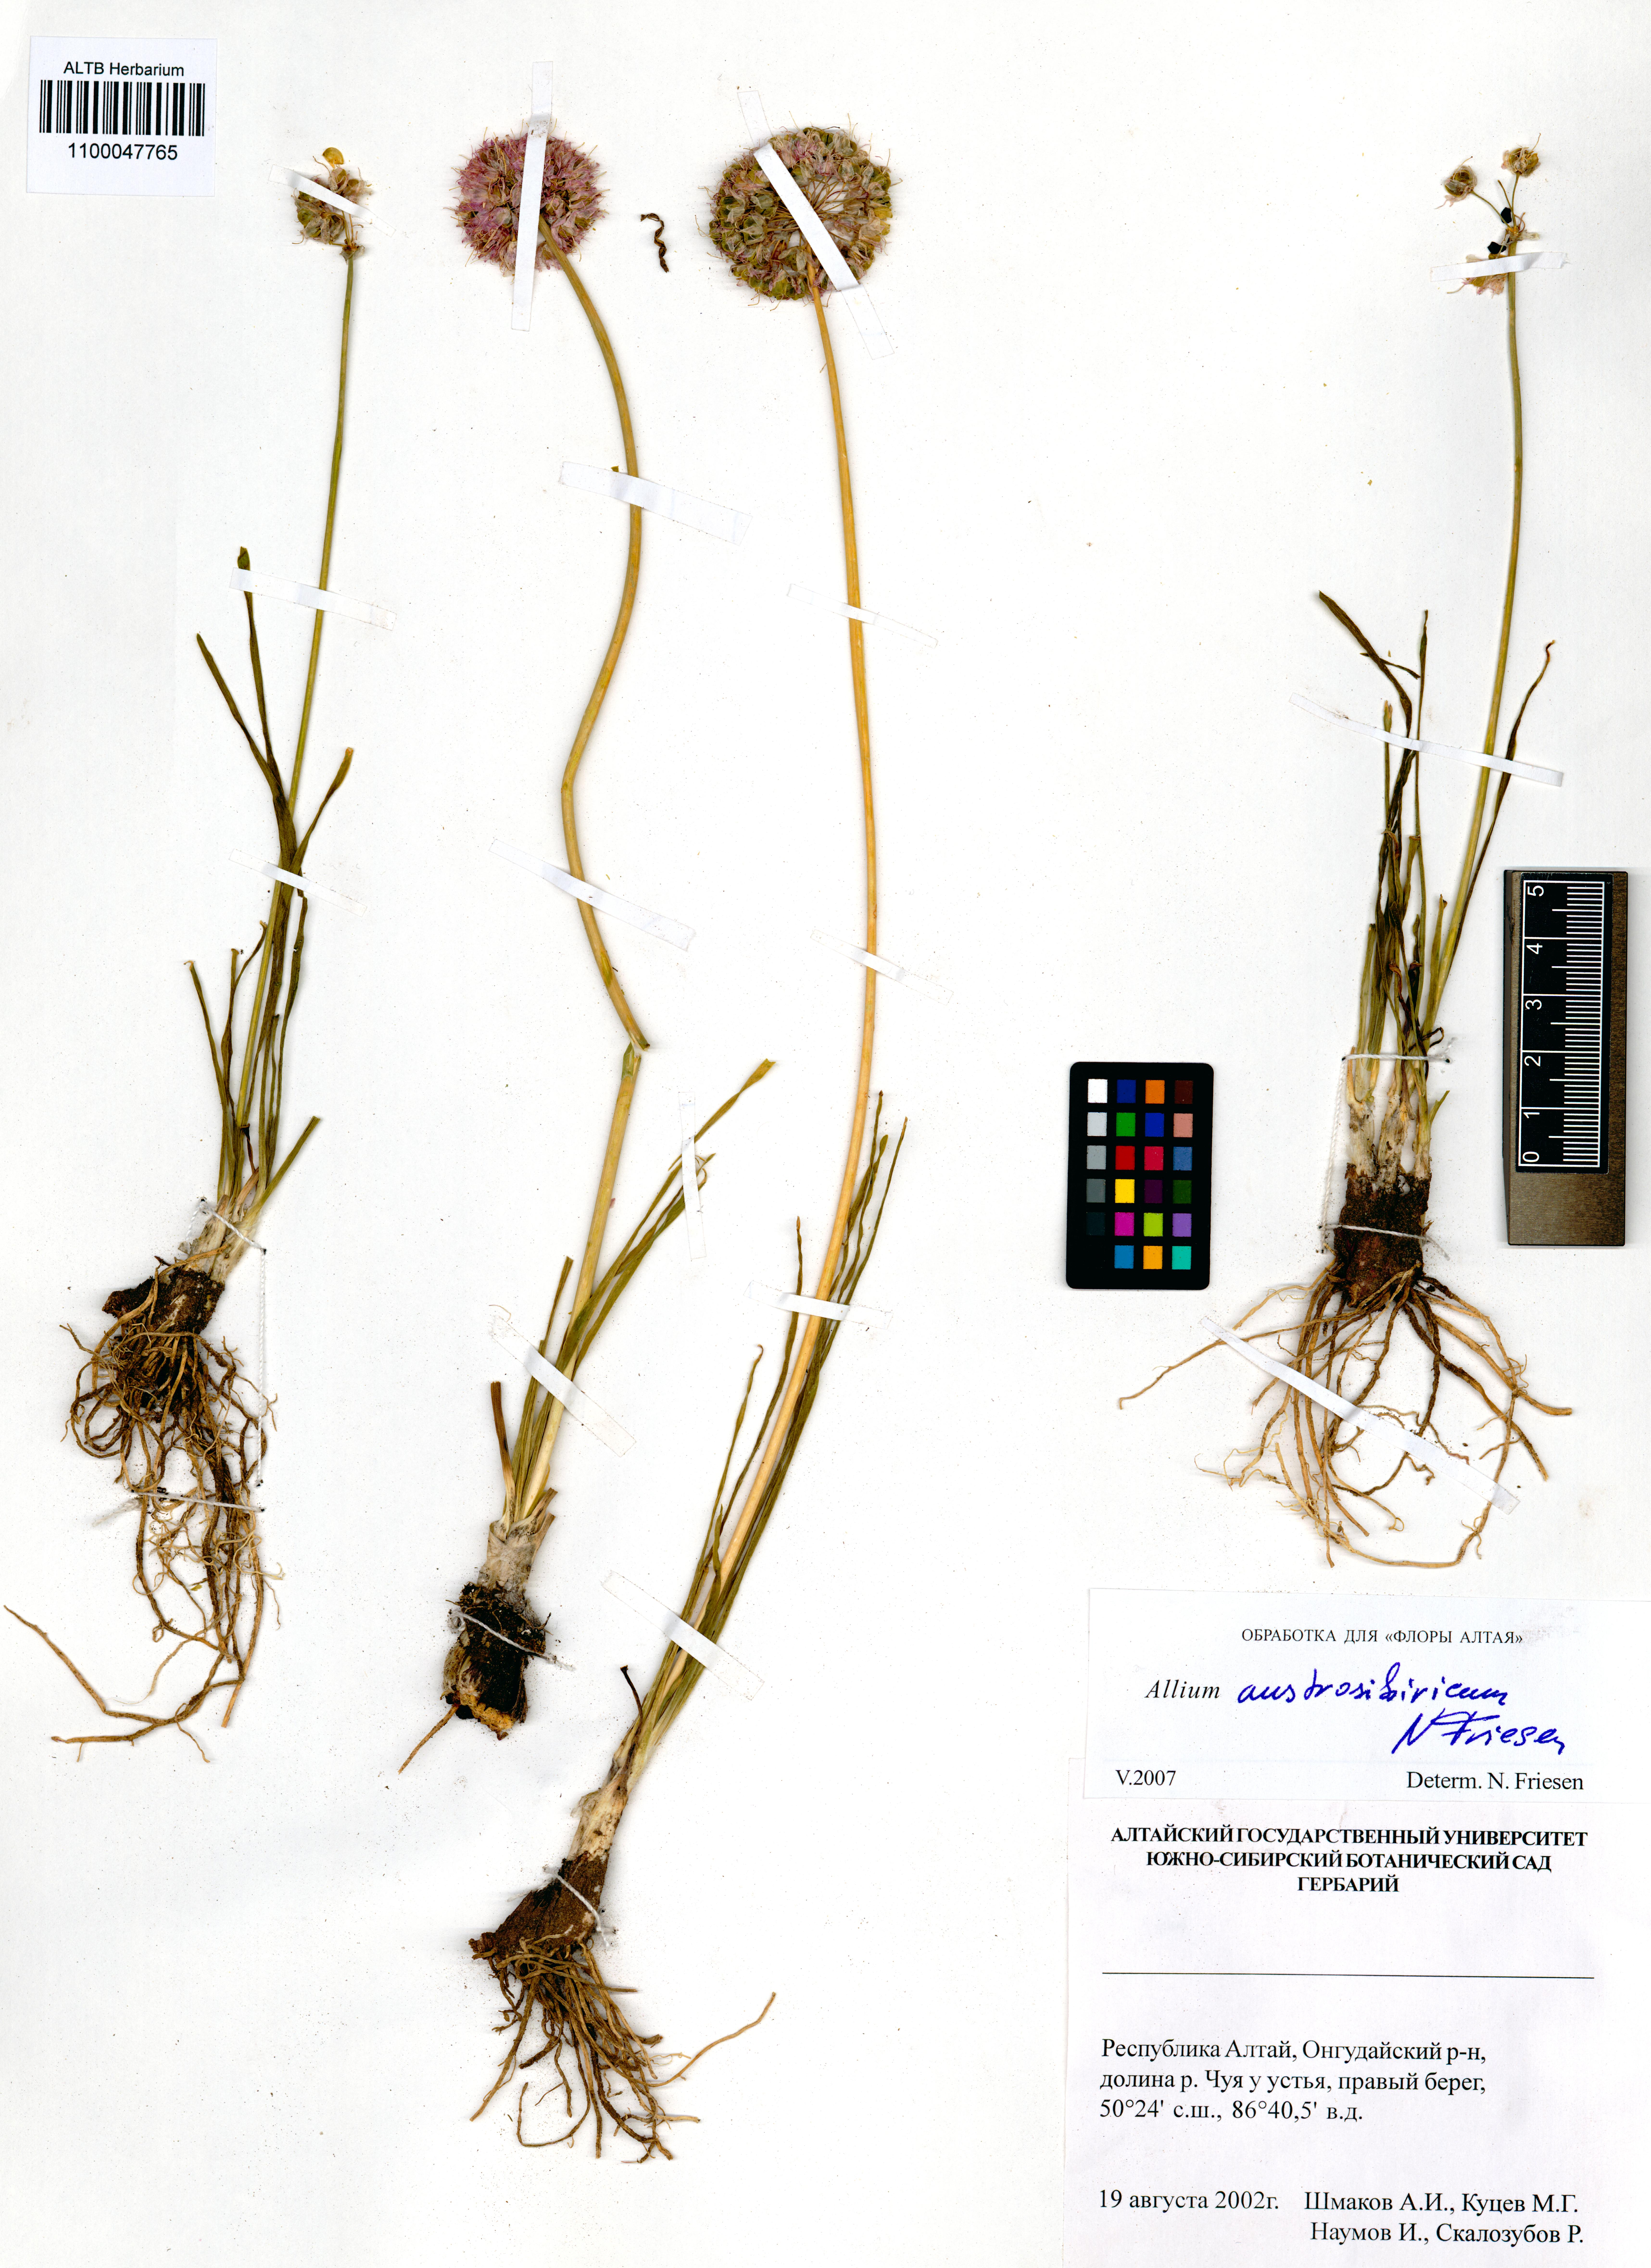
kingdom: Plantae
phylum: Tracheophyta
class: Liliopsida
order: Asparagales
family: Amaryllidaceae
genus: Allium
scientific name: Allium austrosibiricum
